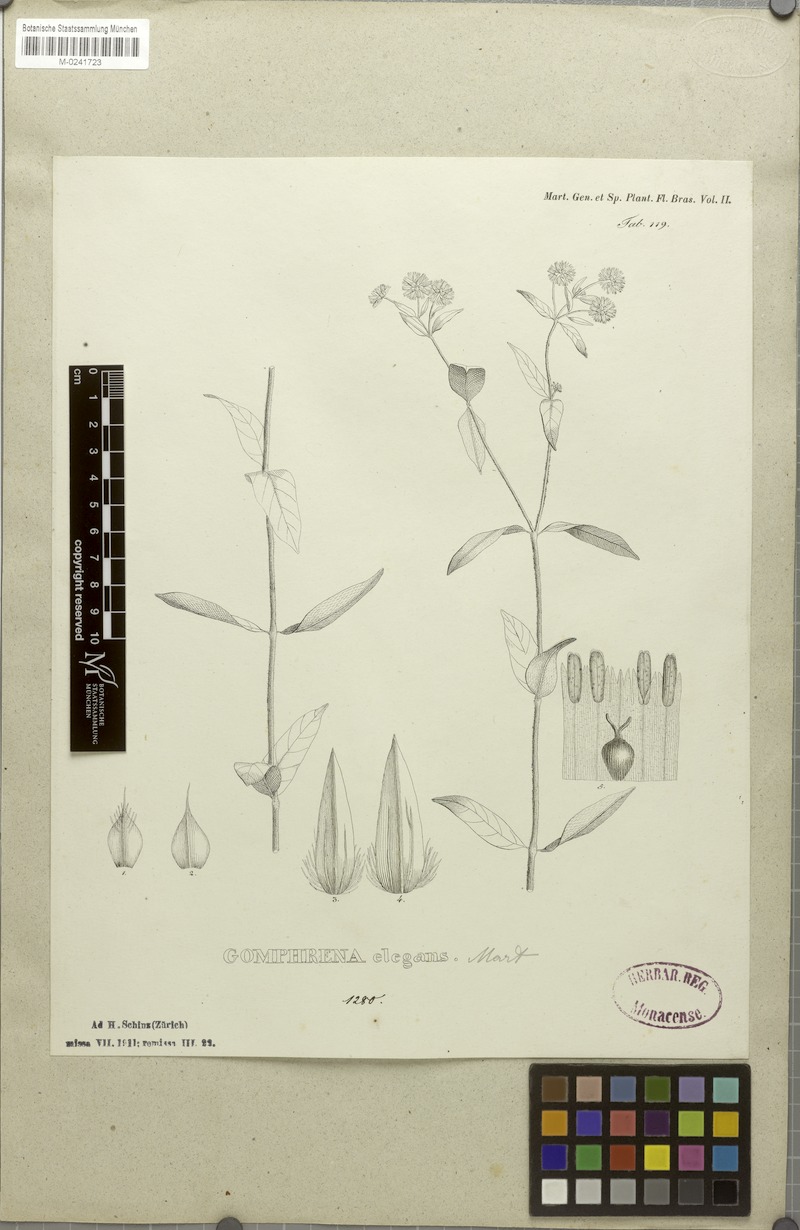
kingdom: Plantae
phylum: Tracheophyta
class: Magnoliopsida
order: Caryophyllales
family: Amaranthaceae
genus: Gomphrena
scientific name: Gomphrena elegans
